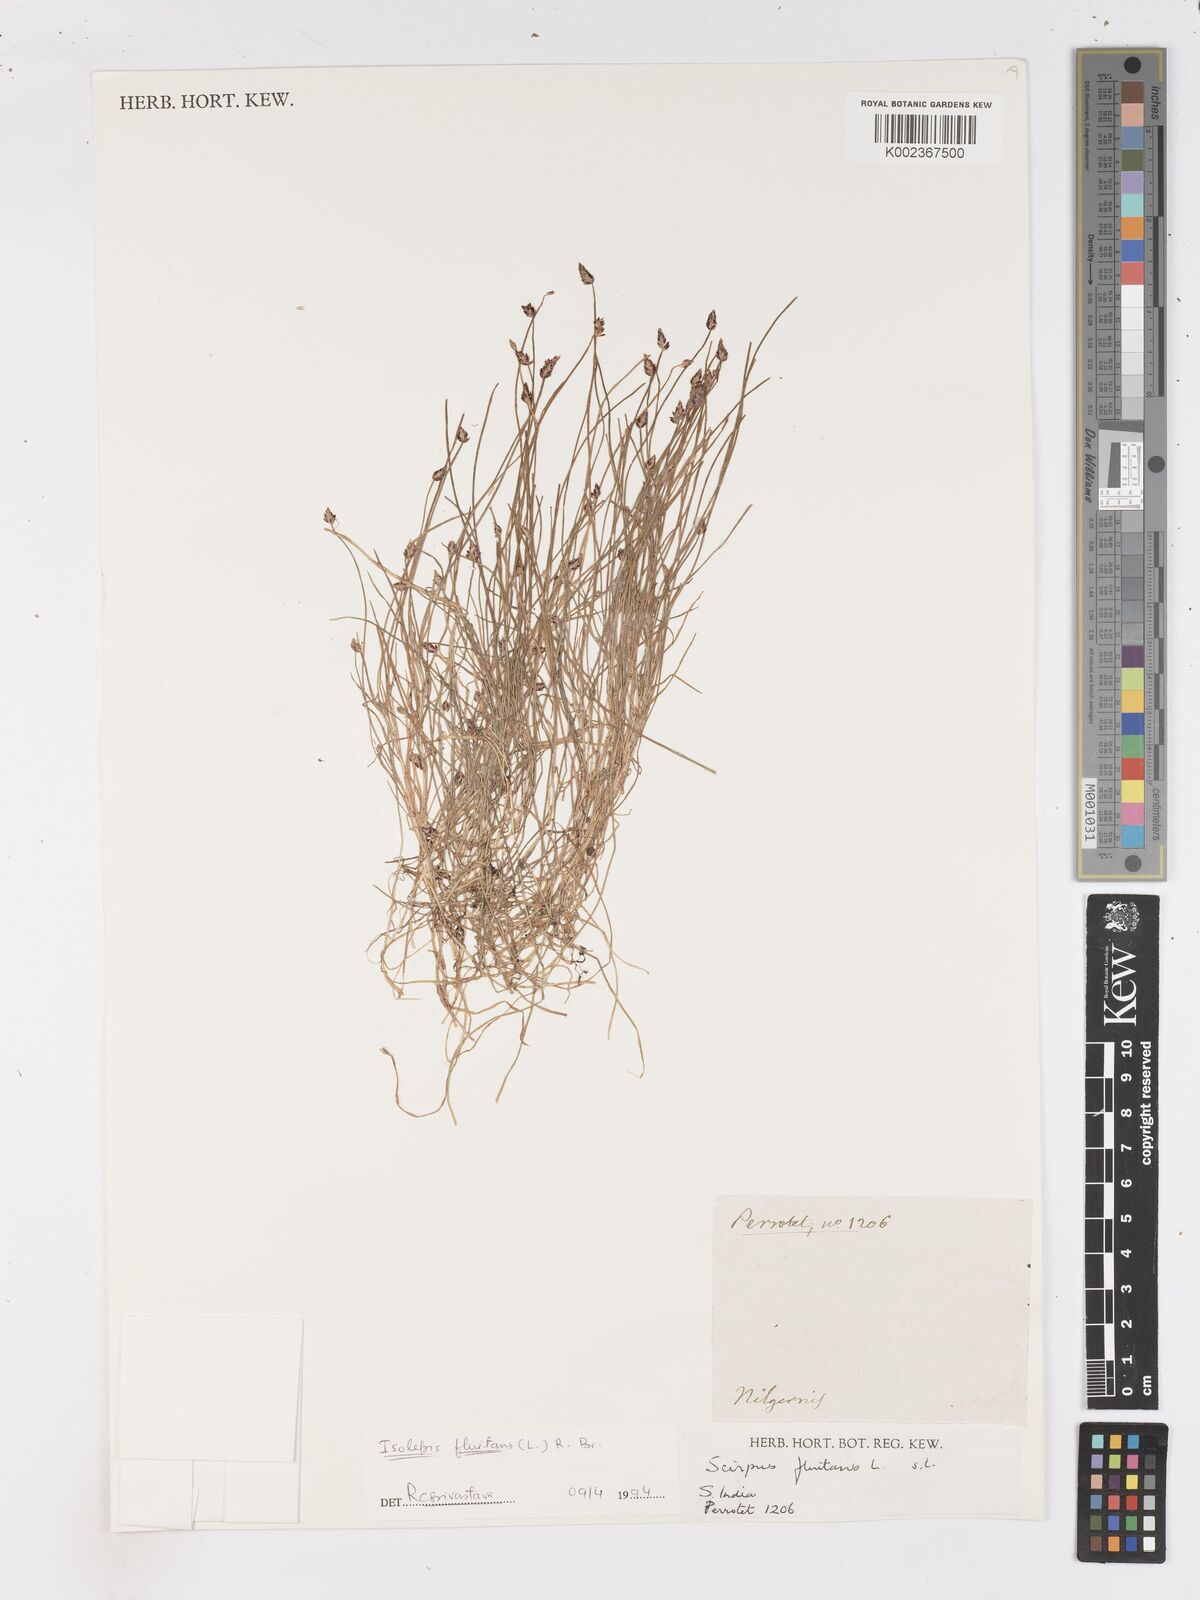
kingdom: Plantae
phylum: Tracheophyta
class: Liliopsida
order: Poales
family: Cyperaceae
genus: Isolepis
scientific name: Isolepis fluitans
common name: Floating club-rush
